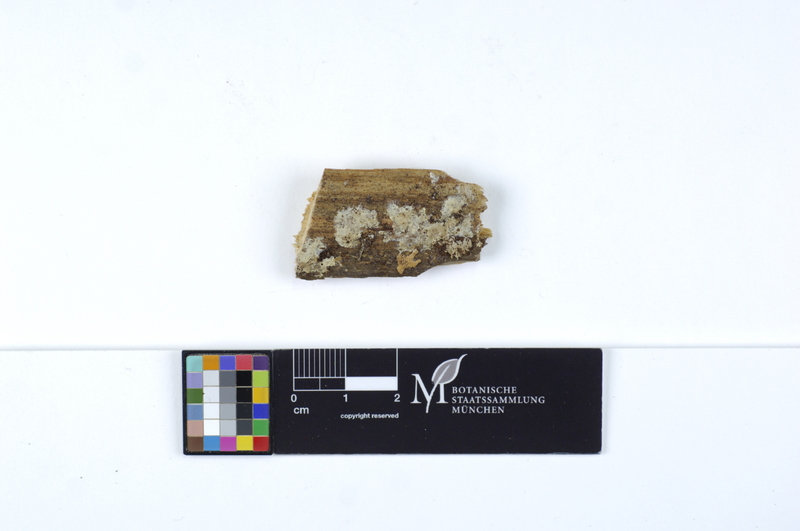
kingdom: Plantae
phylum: Tracheophyta
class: Pinopsida
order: Pinales
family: Pinaceae
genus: Picea
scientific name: Picea
